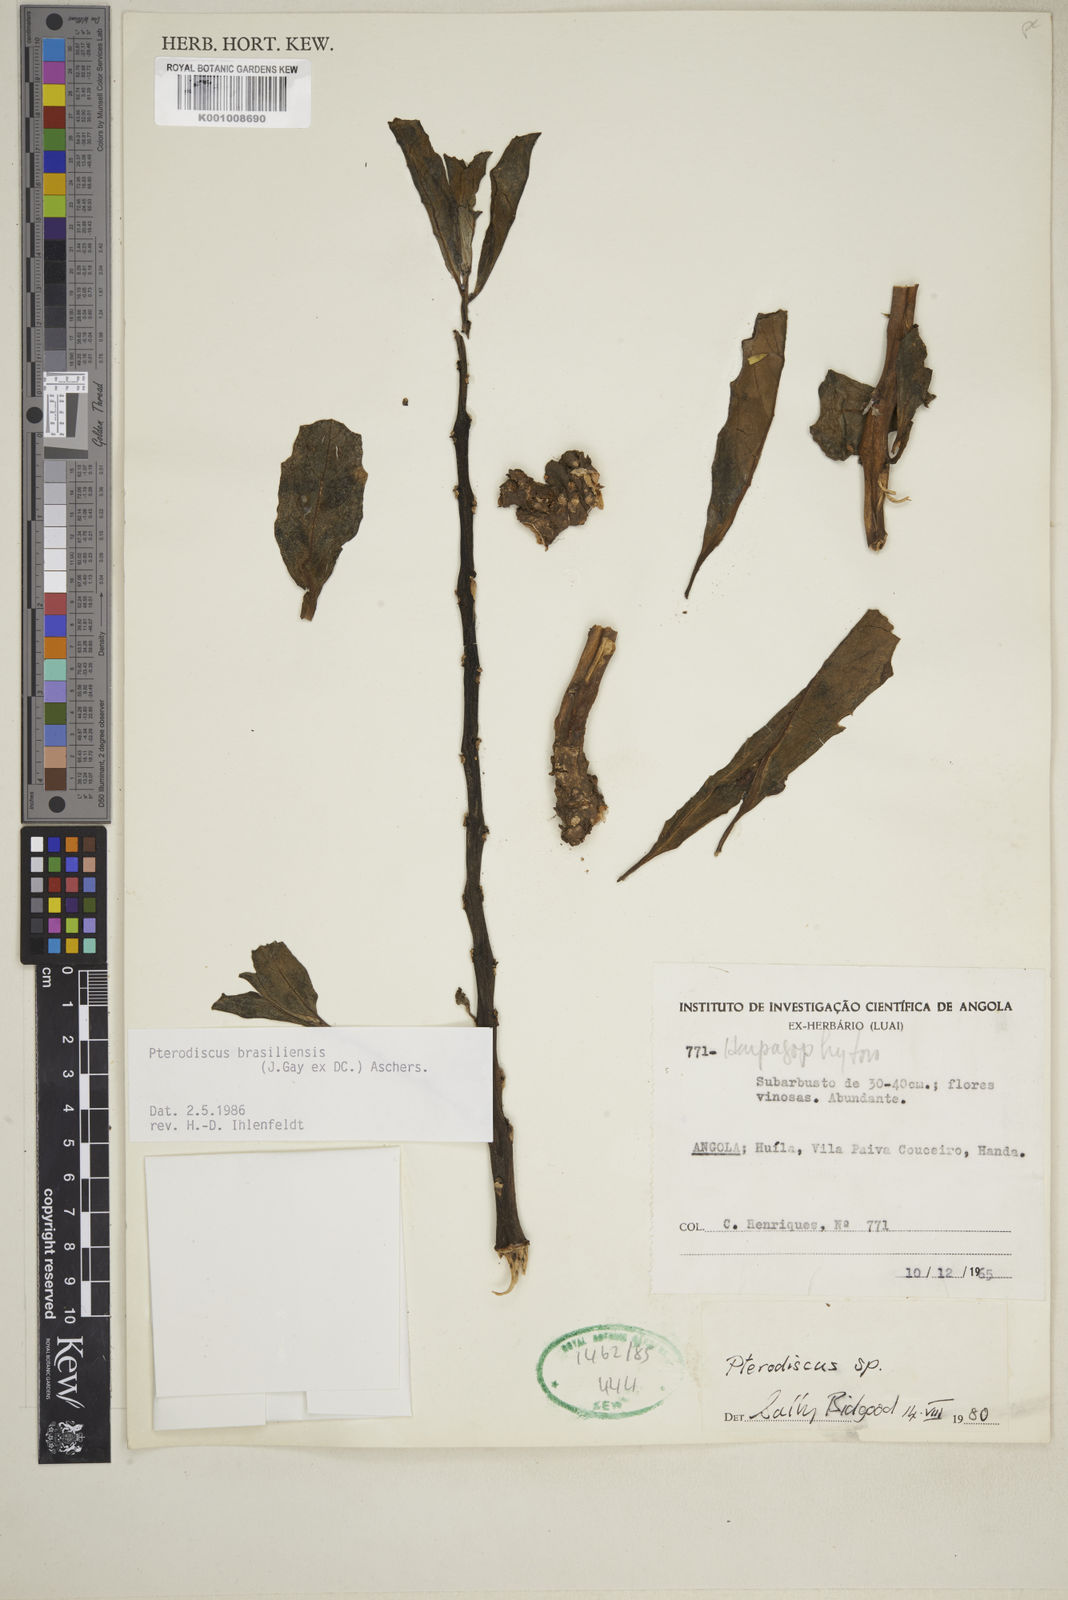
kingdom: Plantae
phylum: Tracheophyta
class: Magnoliopsida
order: Lamiales
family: Pedaliaceae
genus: Pterodiscus
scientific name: Pterodiscus brasiliensis
